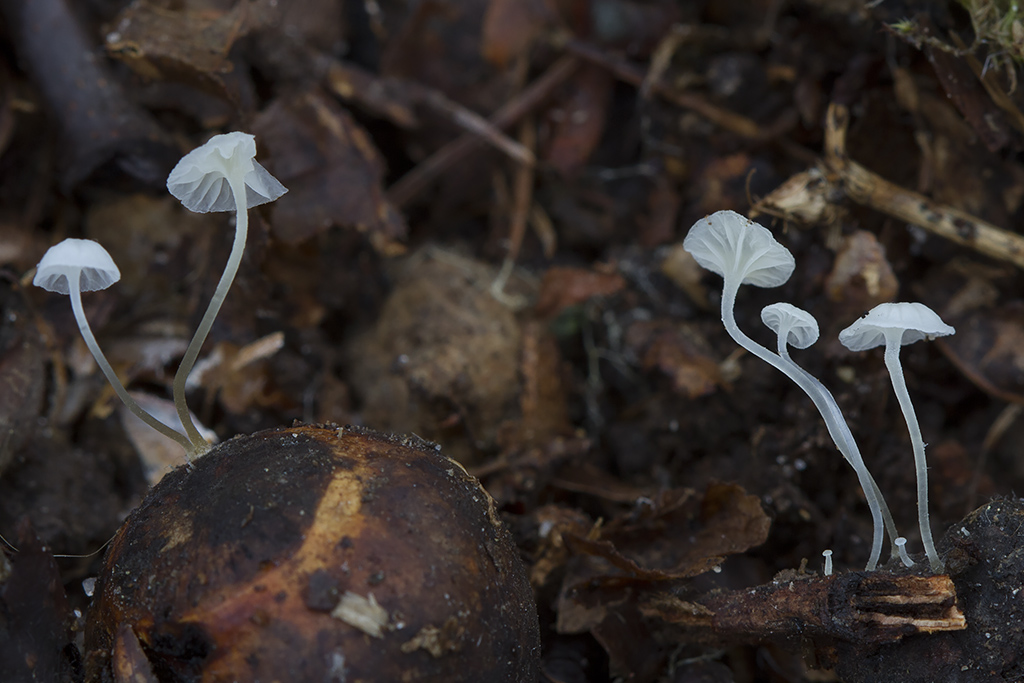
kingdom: Fungi
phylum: Basidiomycota
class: Agaricomycetes
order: Agaricales
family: Mycenaceae
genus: Hemimycena
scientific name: Hemimycena
